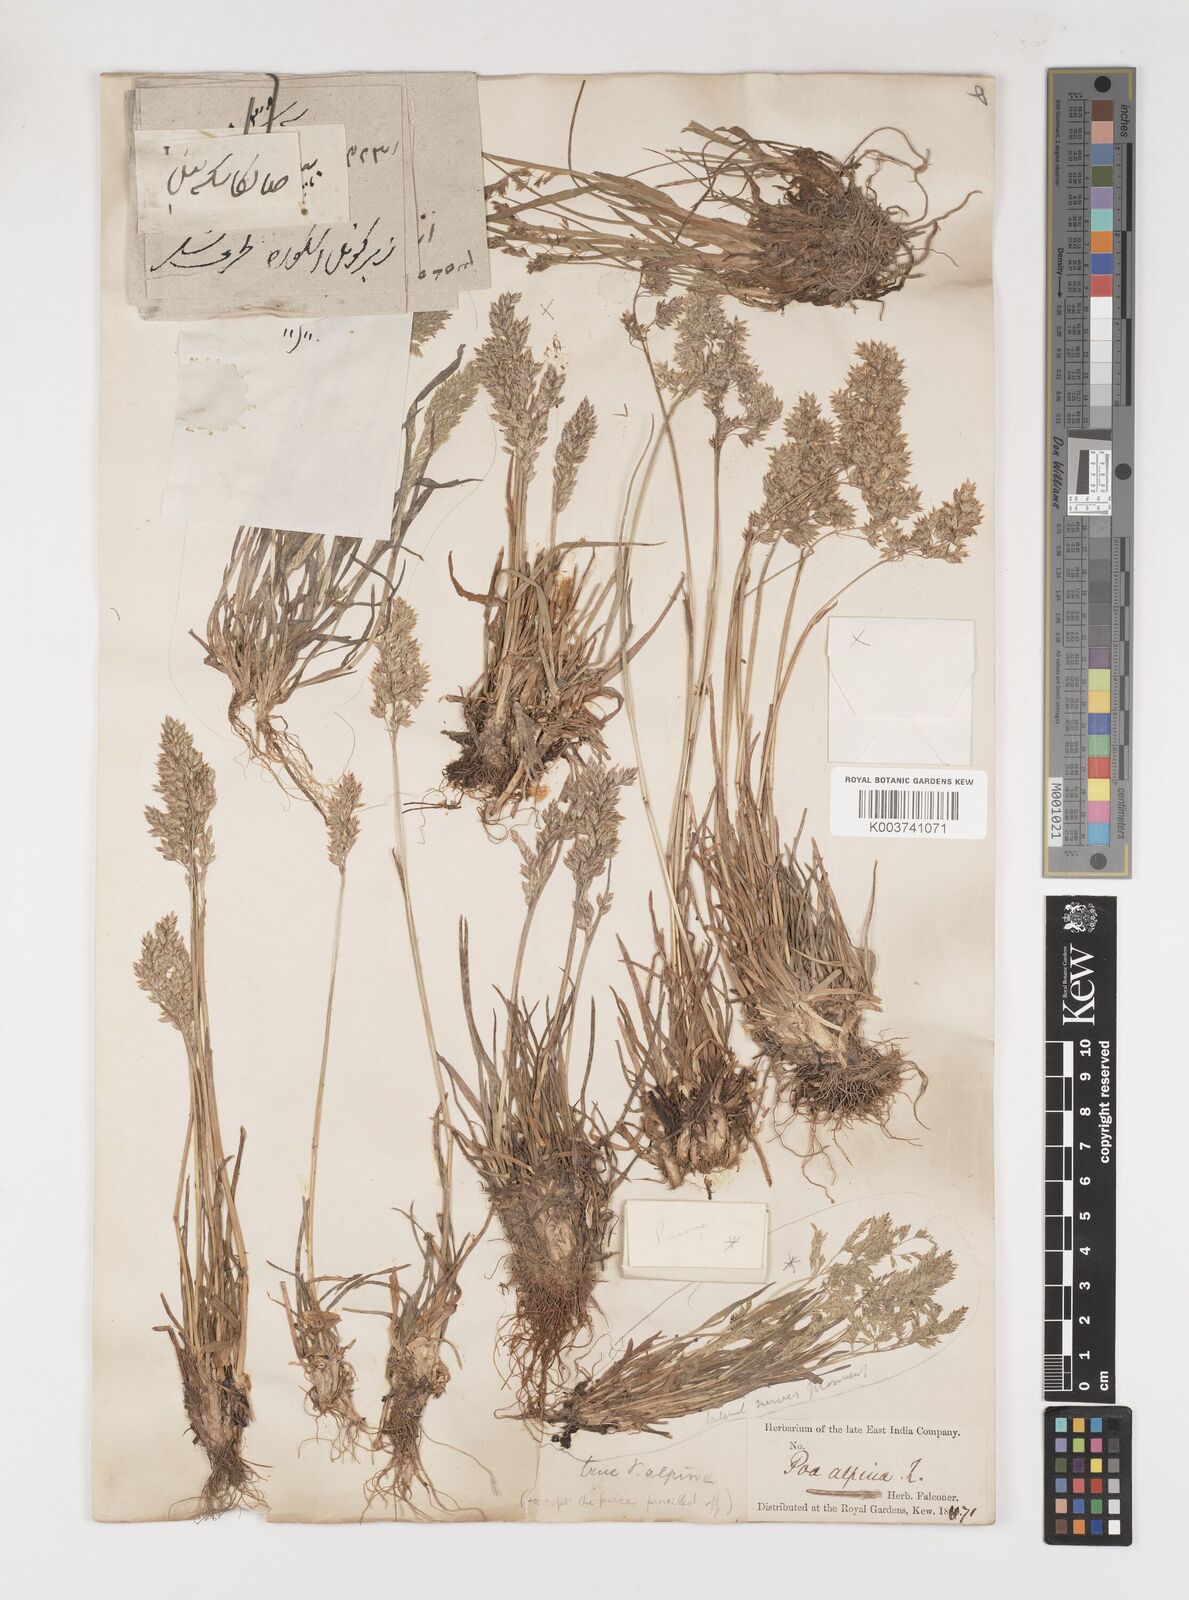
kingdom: Plantae
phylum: Tracheophyta
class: Liliopsida
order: Poales
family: Poaceae
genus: Poa
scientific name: Poa alpina
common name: Alpine bluegrass
